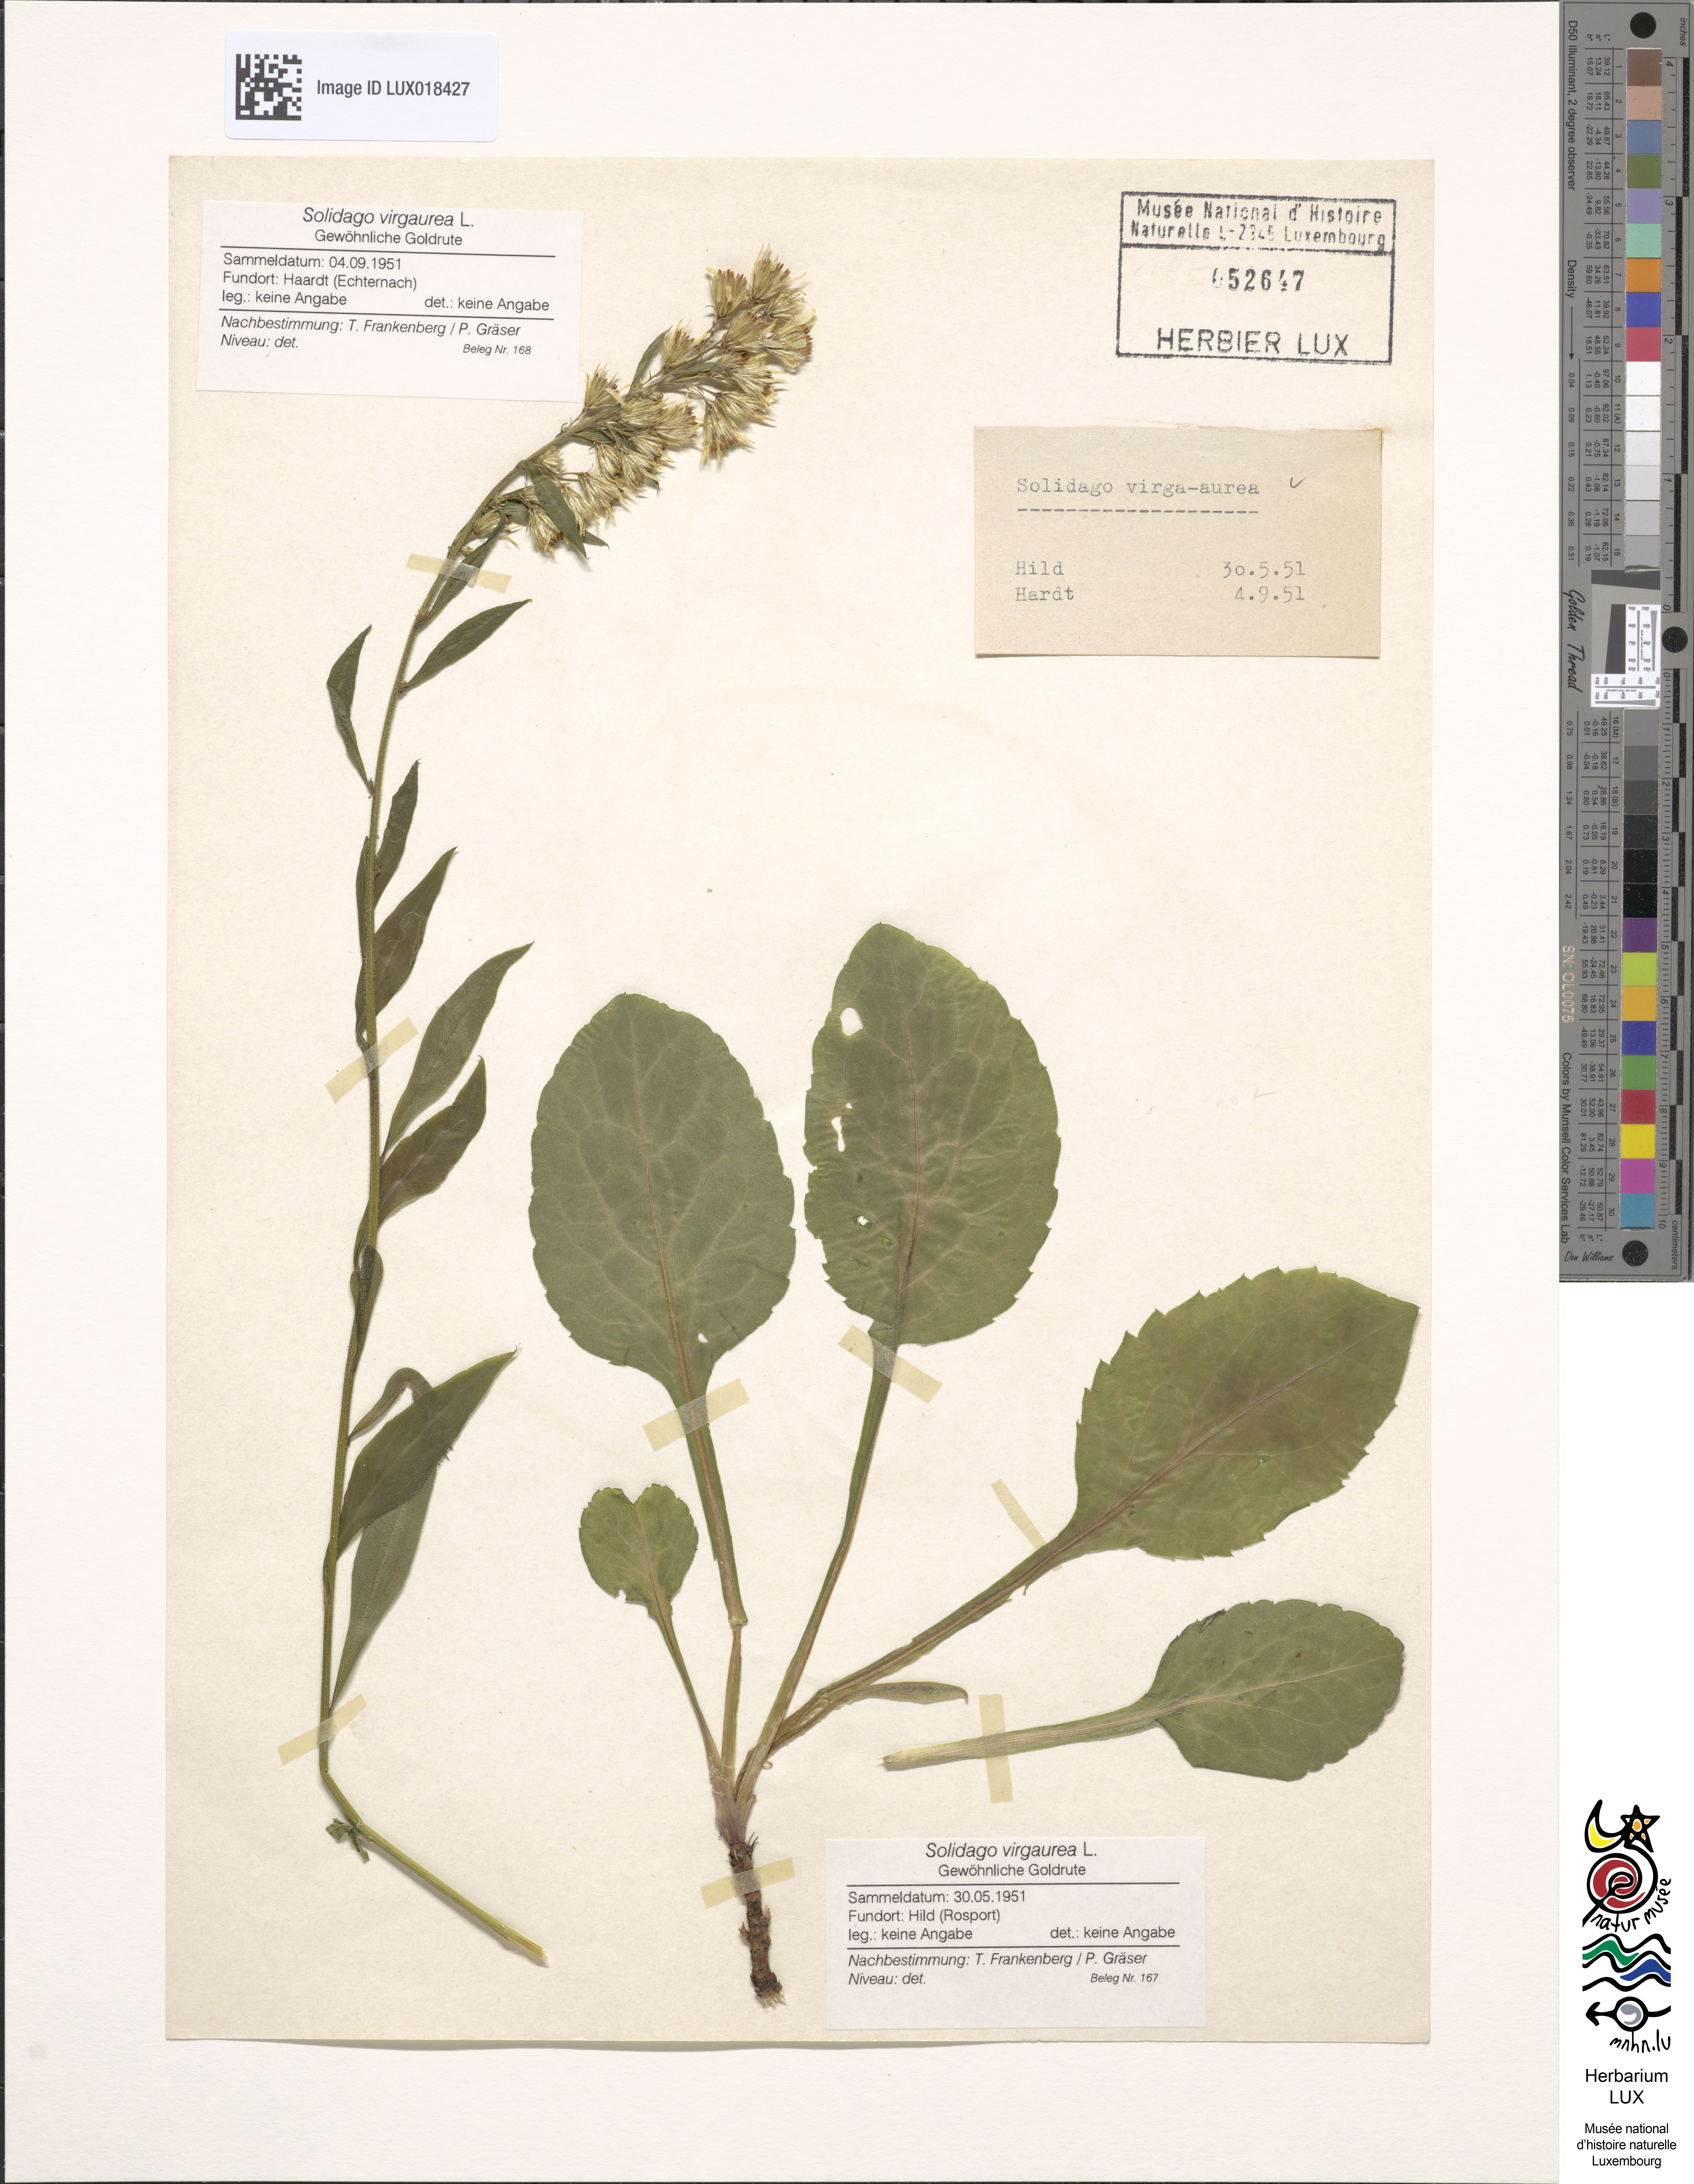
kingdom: Plantae
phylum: Tracheophyta
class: Magnoliopsida
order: Asterales
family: Asteraceae
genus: Solidago
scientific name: Solidago virgaurea
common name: Goldenrod
